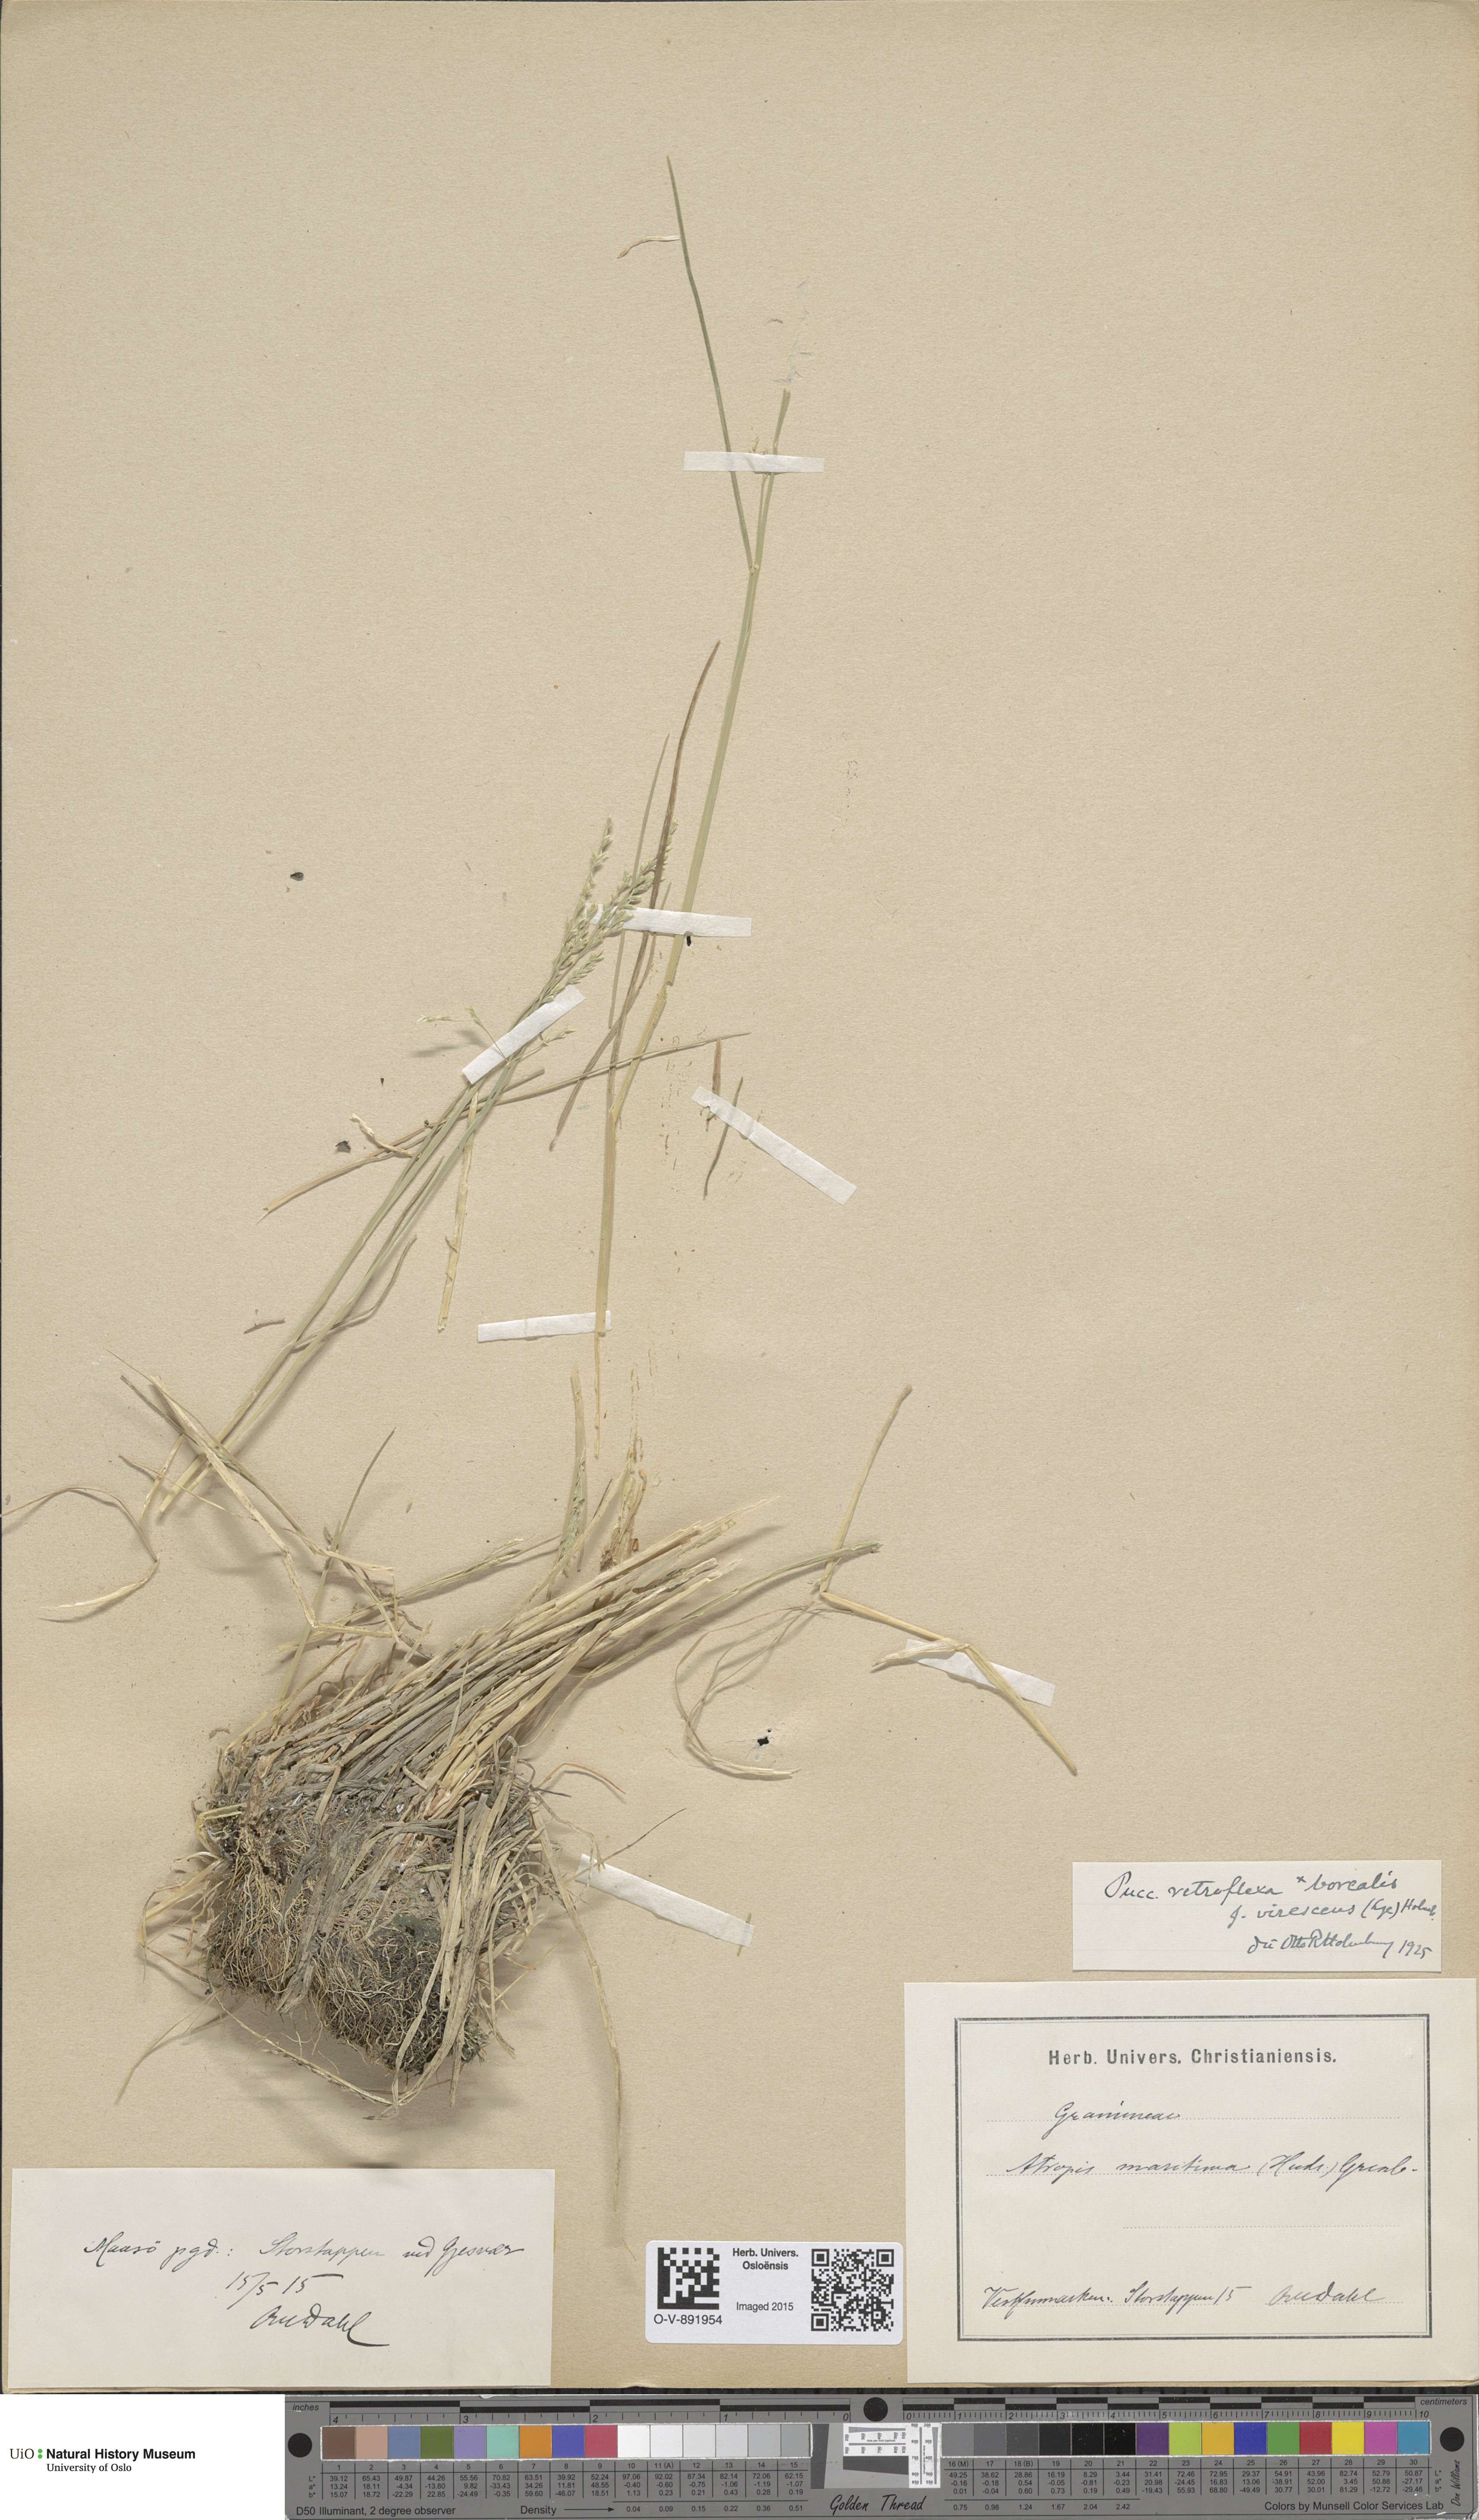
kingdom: Plantae
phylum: Tracheophyta
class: Liliopsida
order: Poales
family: Poaceae
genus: Puccinellia
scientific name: Puccinellia distans
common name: Weeping alkaligrass
